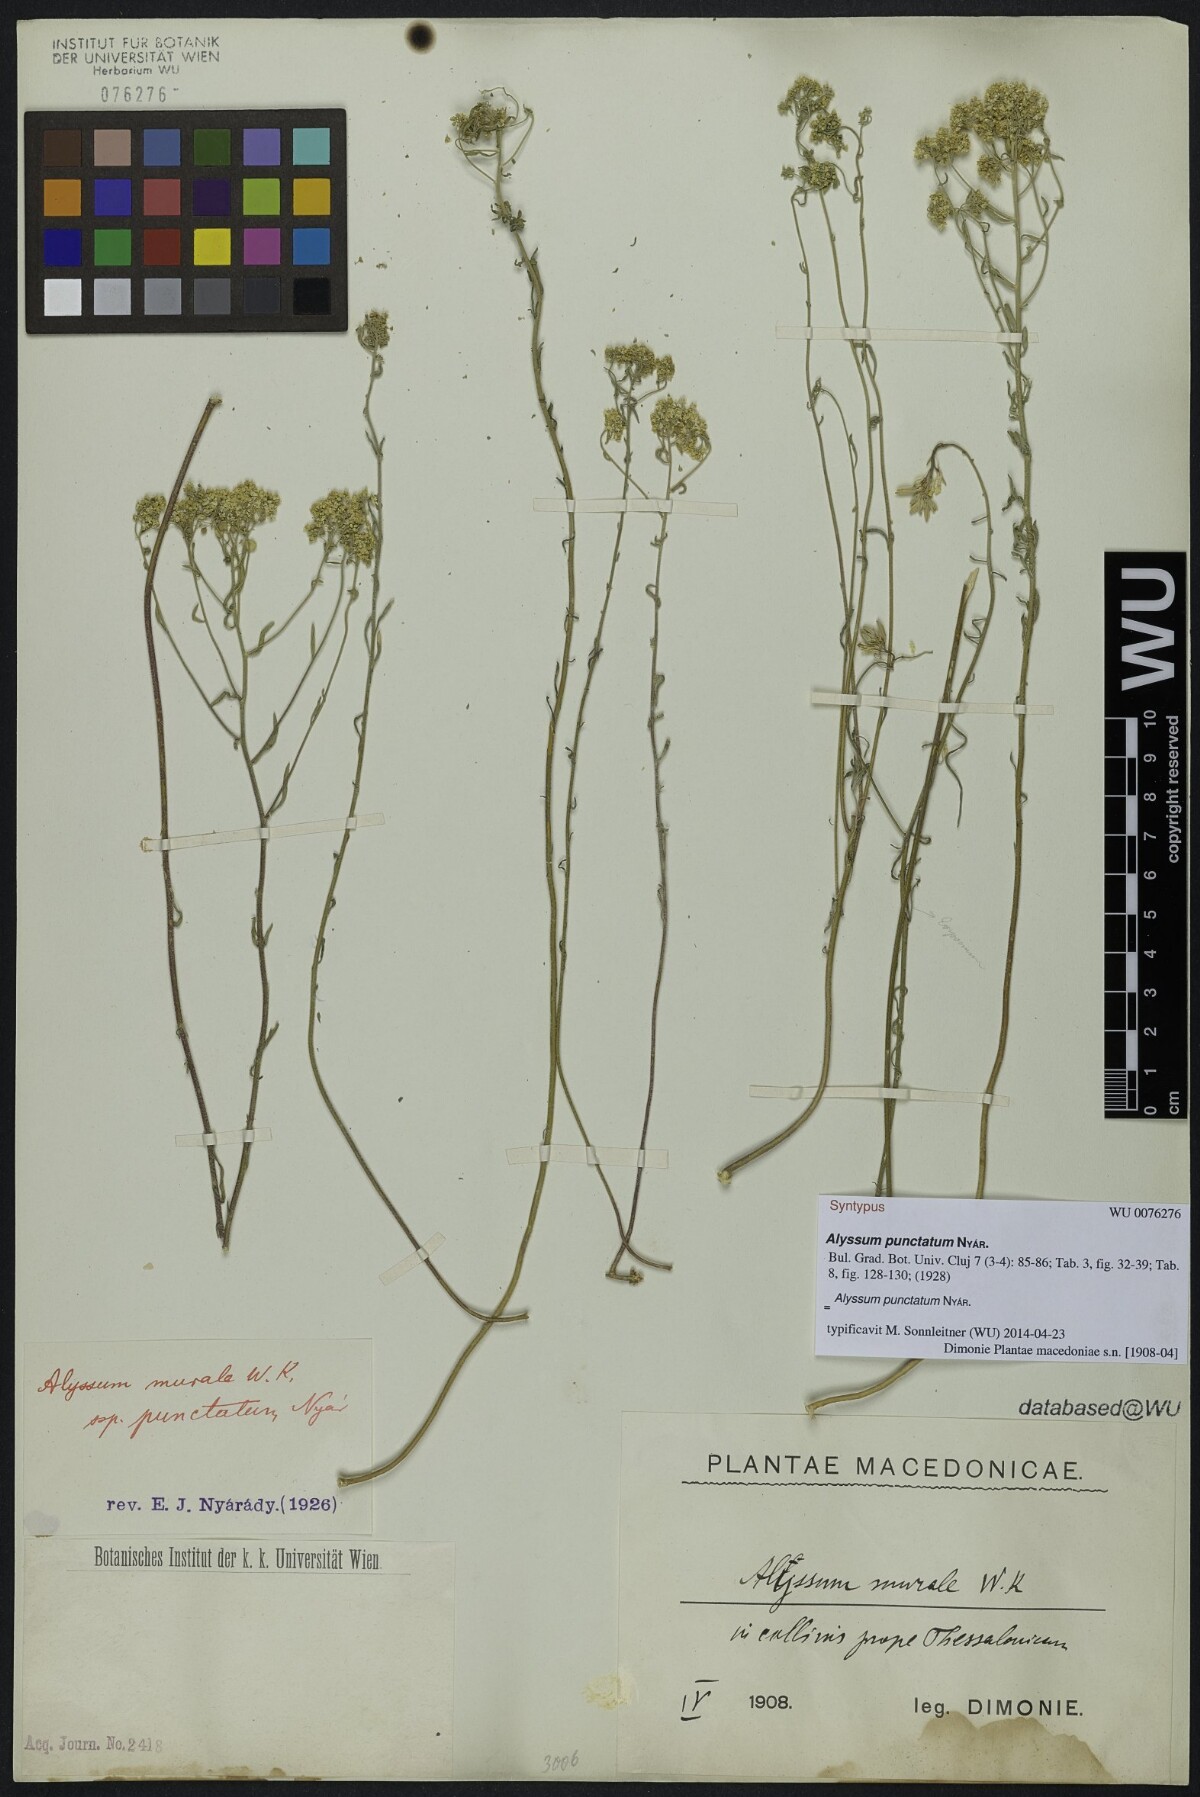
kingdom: Plantae
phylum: Tracheophyta
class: Magnoliopsida
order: Brassicales
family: Brassicaceae
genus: Odontarrhena
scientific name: Odontarrhena muralis
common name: Rock alyssum
